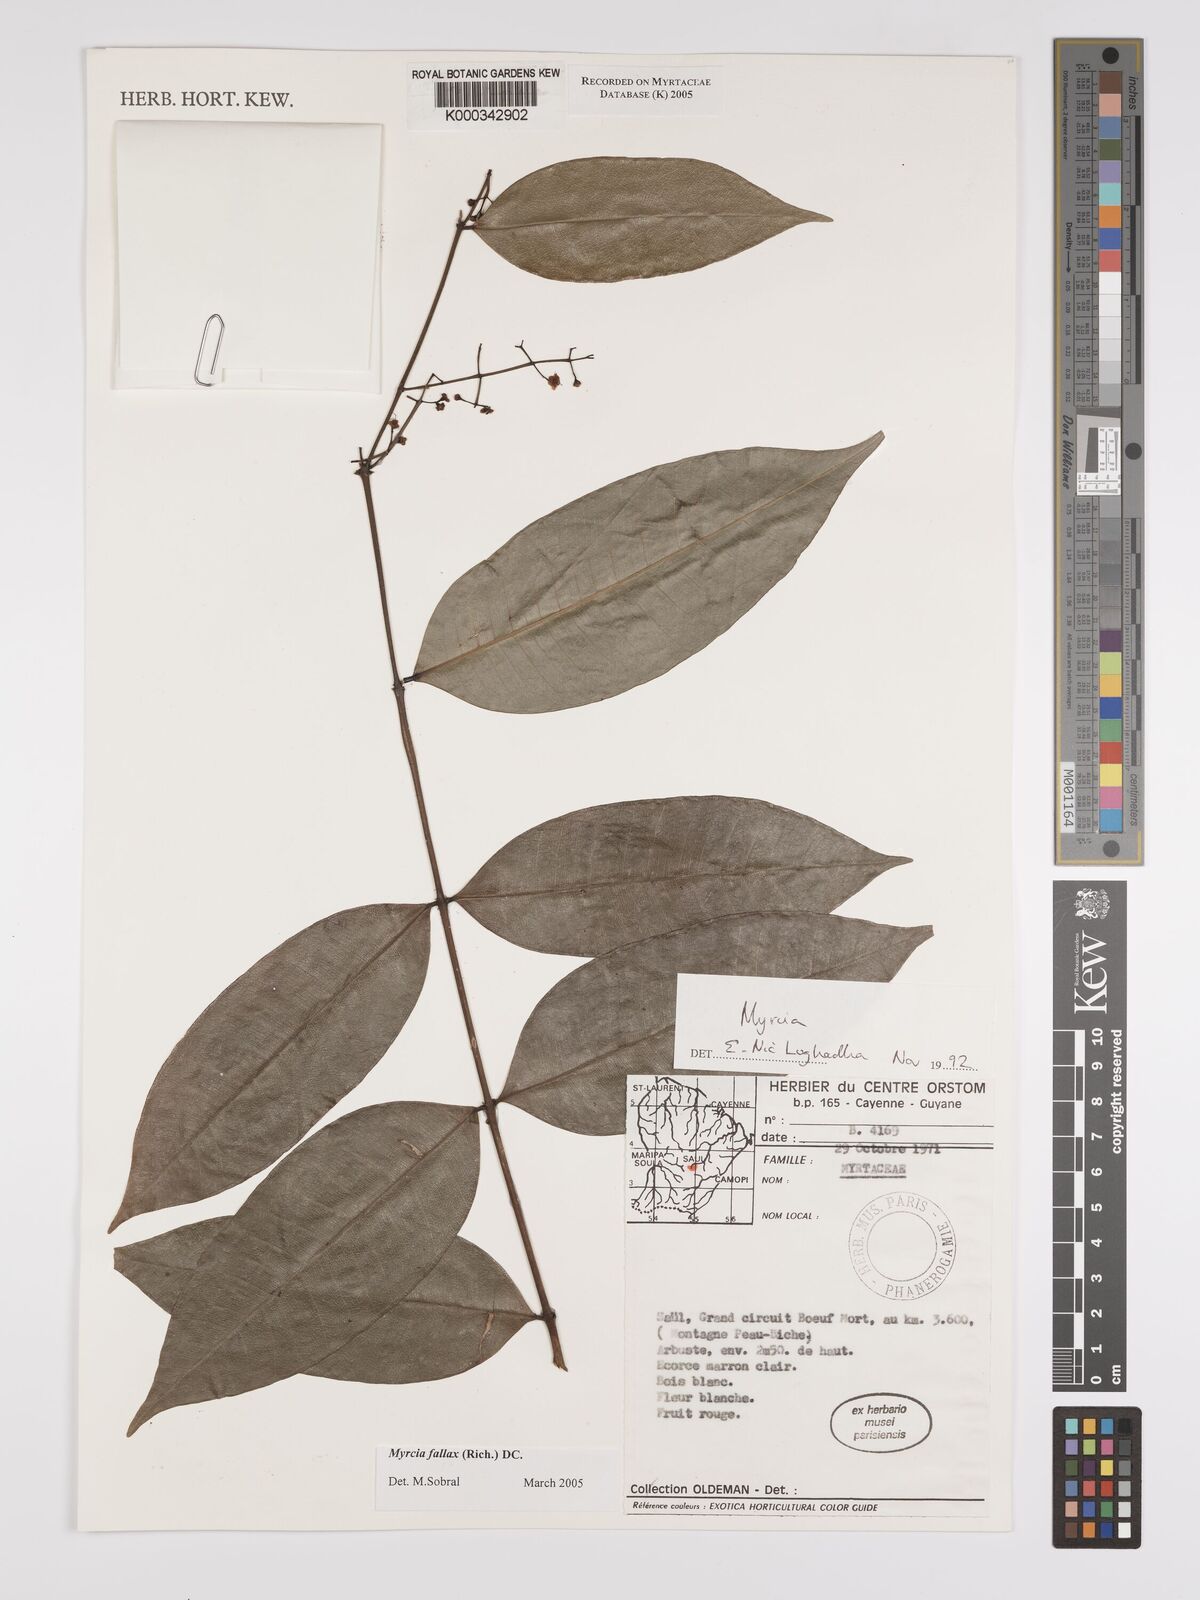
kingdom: Plantae
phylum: Tracheophyta
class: Magnoliopsida
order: Myrtales
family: Myrtaceae
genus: Myrcia
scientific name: Myrcia splendens
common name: Surinam cherry
